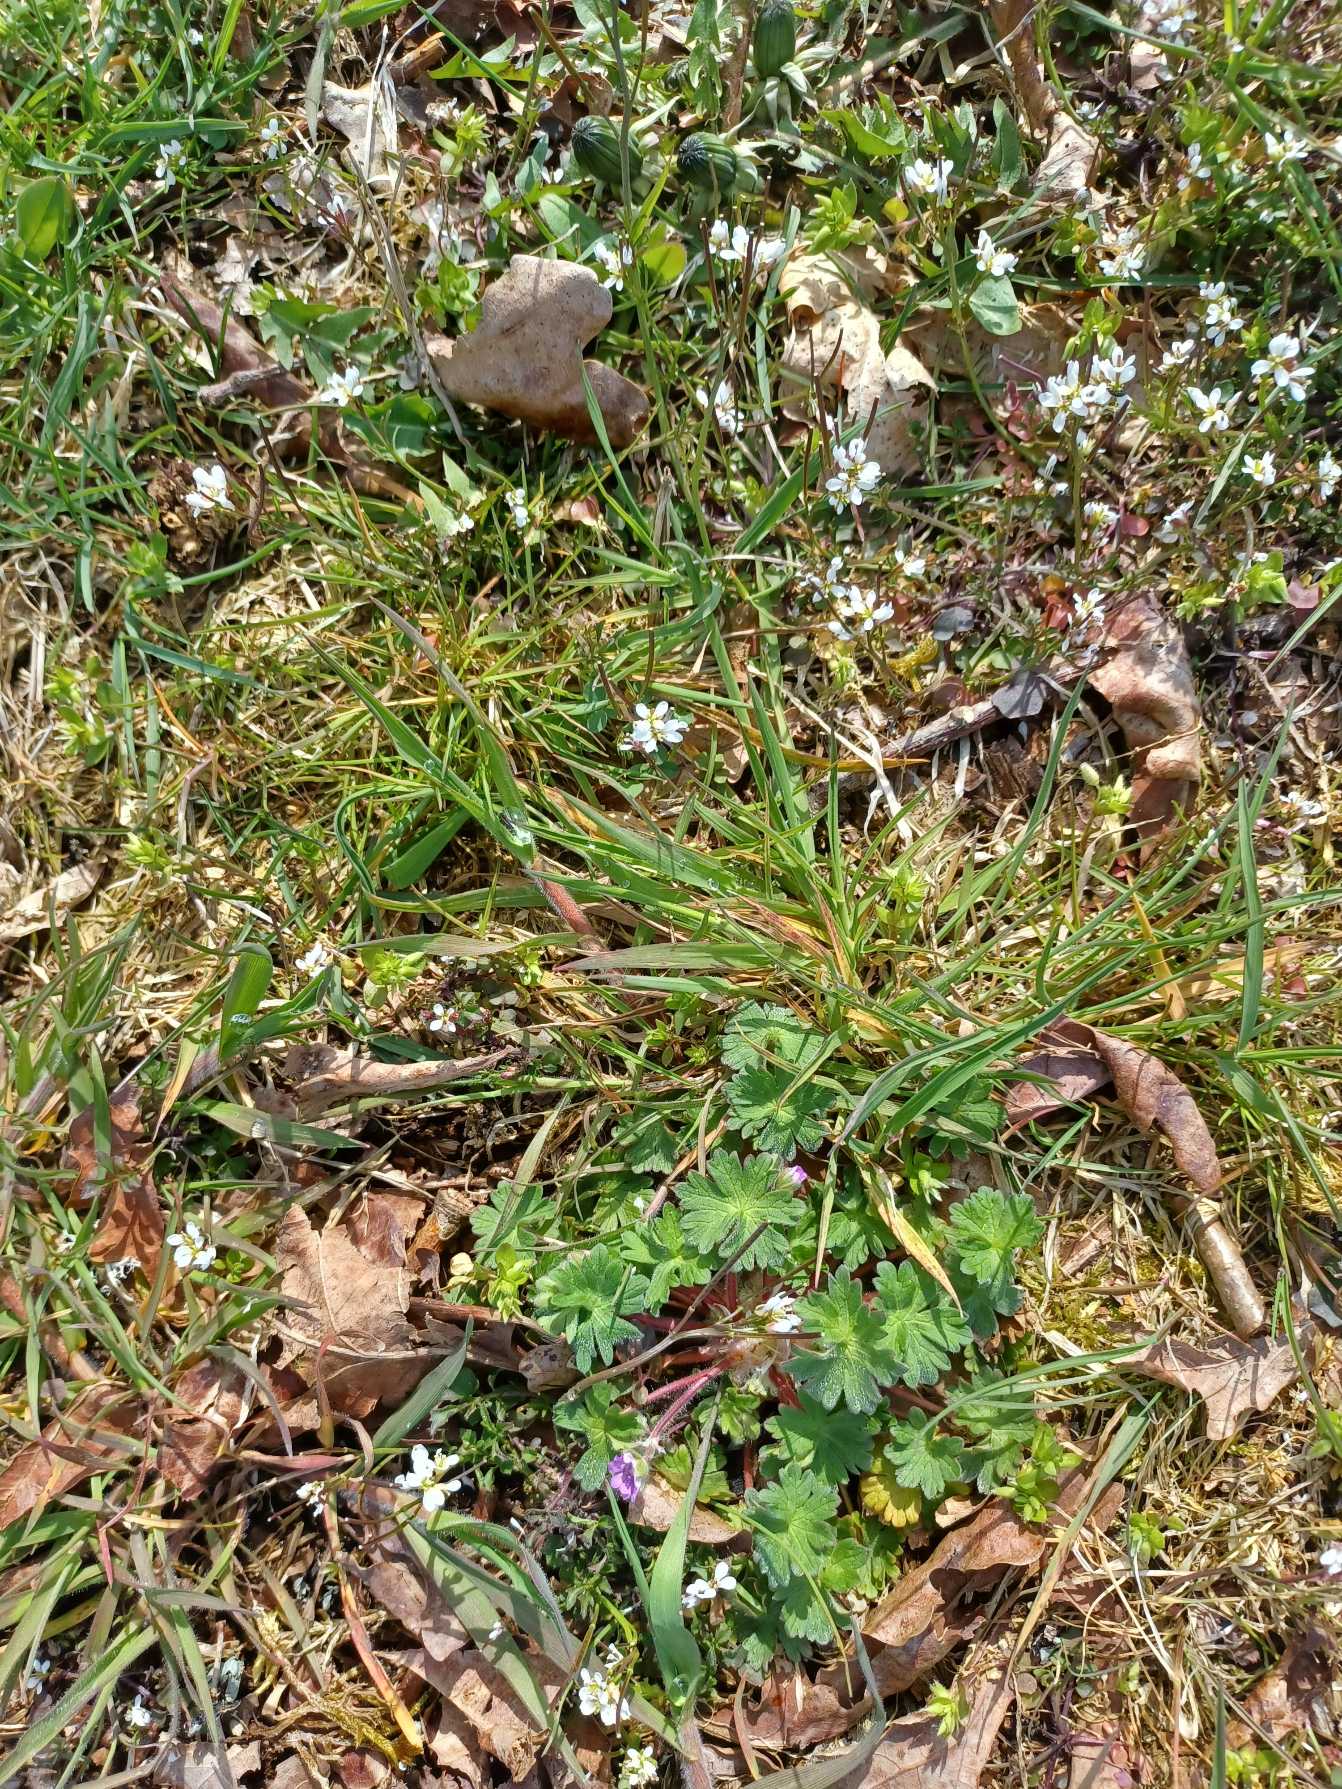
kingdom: Plantae
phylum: Tracheophyta
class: Magnoliopsida
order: Brassicales
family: Brassicaceae
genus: Draba
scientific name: Draba verna
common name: Vår-gæslingeblomst
